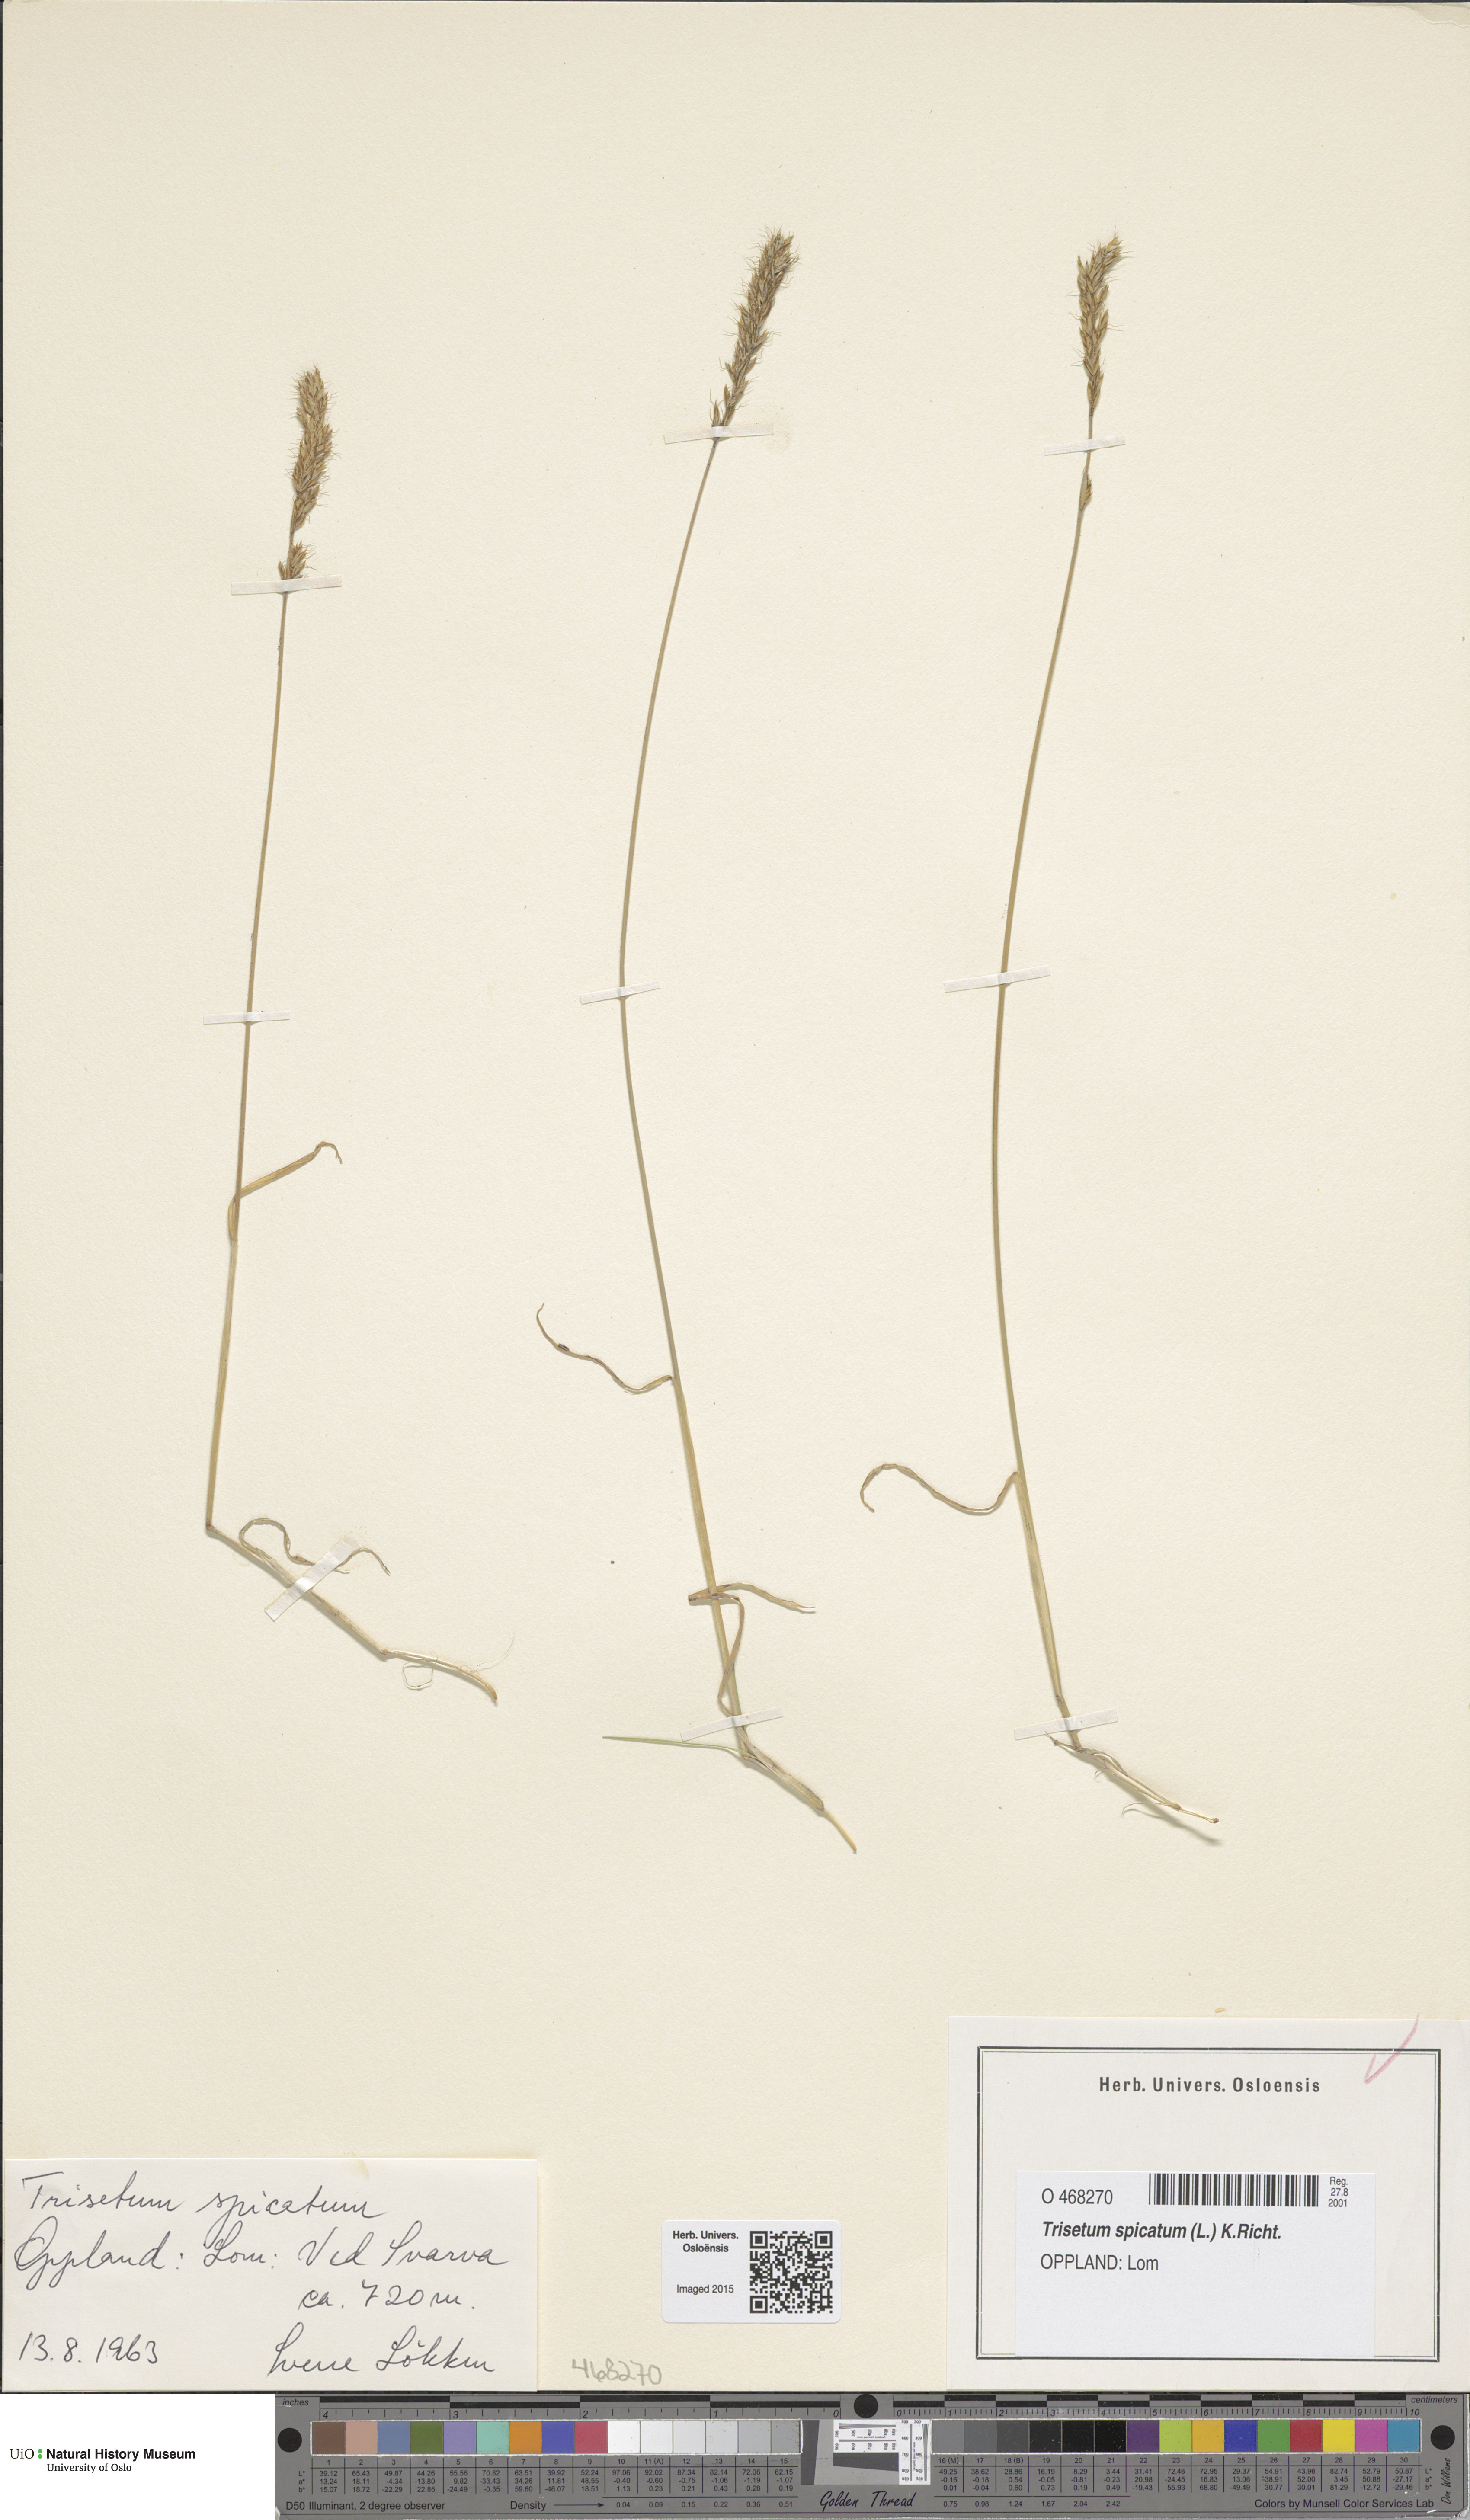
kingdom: Plantae
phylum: Tracheophyta
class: Liliopsida
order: Poales
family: Poaceae
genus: Koeleria
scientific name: Koeleria spicata
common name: Mountain trisetum
